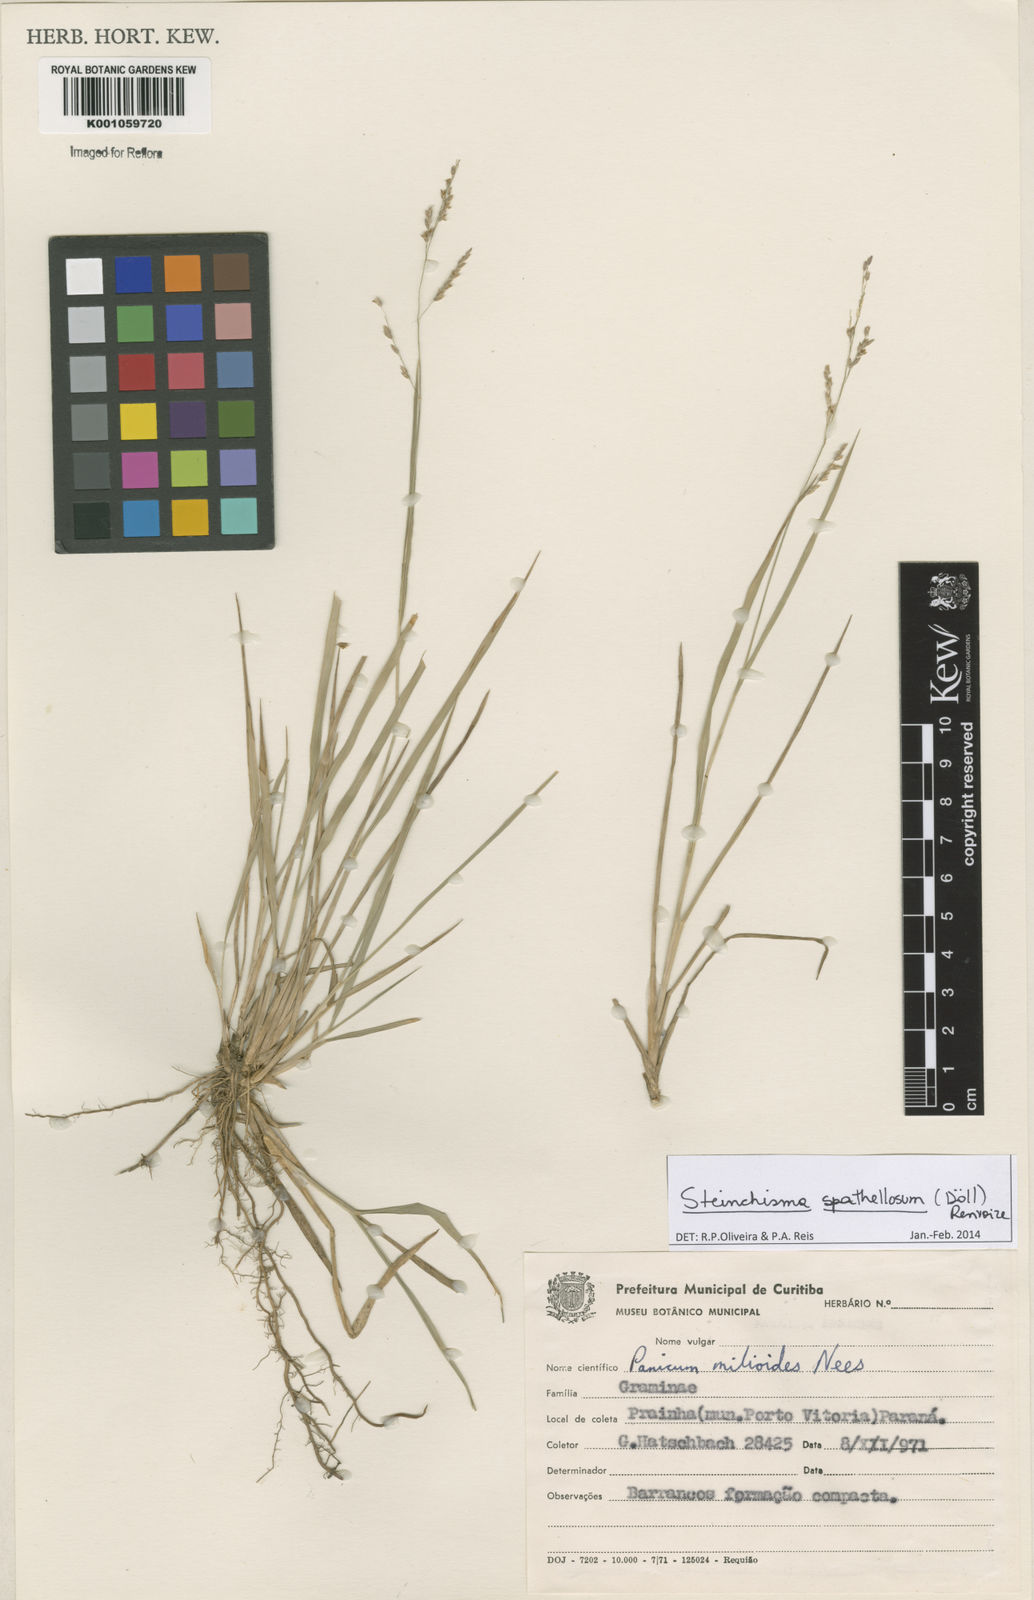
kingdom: Plantae
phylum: Tracheophyta
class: Liliopsida
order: Poales
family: Poaceae
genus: Steinchisma
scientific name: Steinchisma
